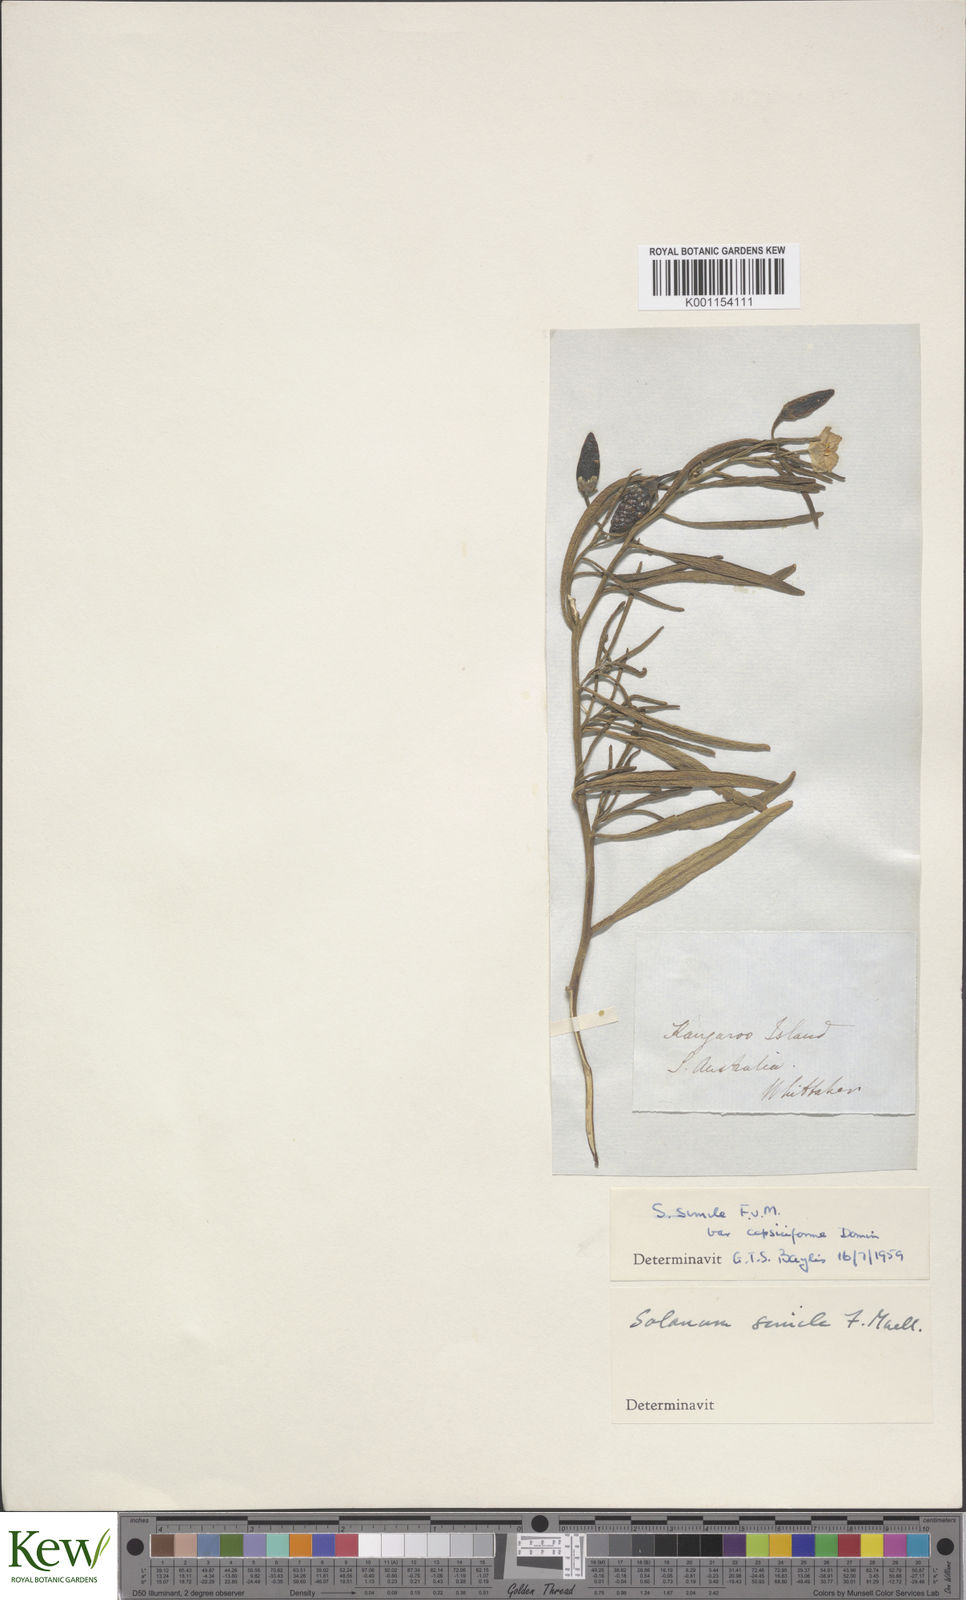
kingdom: Plantae
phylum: Tracheophyta
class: Magnoliopsida
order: Solanales
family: Solanaceae
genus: Solanum
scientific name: Solanum
